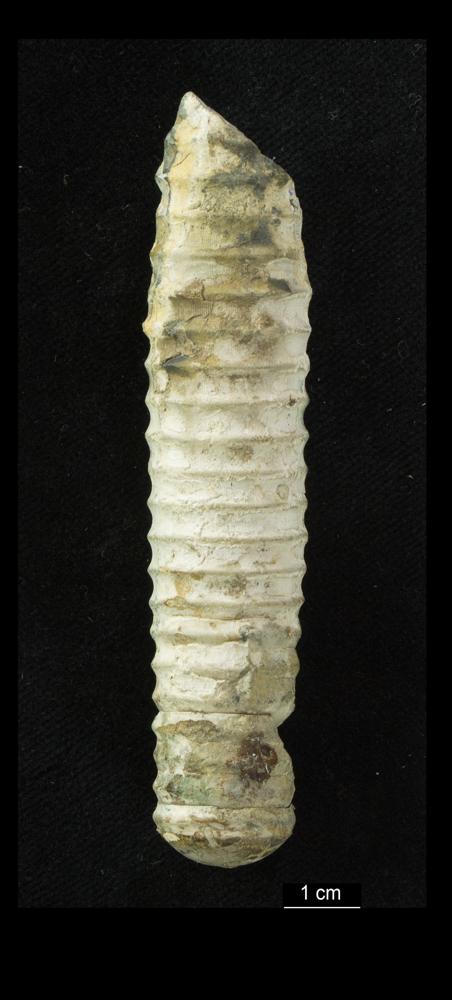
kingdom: Animalia
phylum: Mollusca
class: Cephalopoda
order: Orthocerida
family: Pseudorthoceratidae
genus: Spyroceras
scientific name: Spyroceras Orthoceras clathratoannulatum
